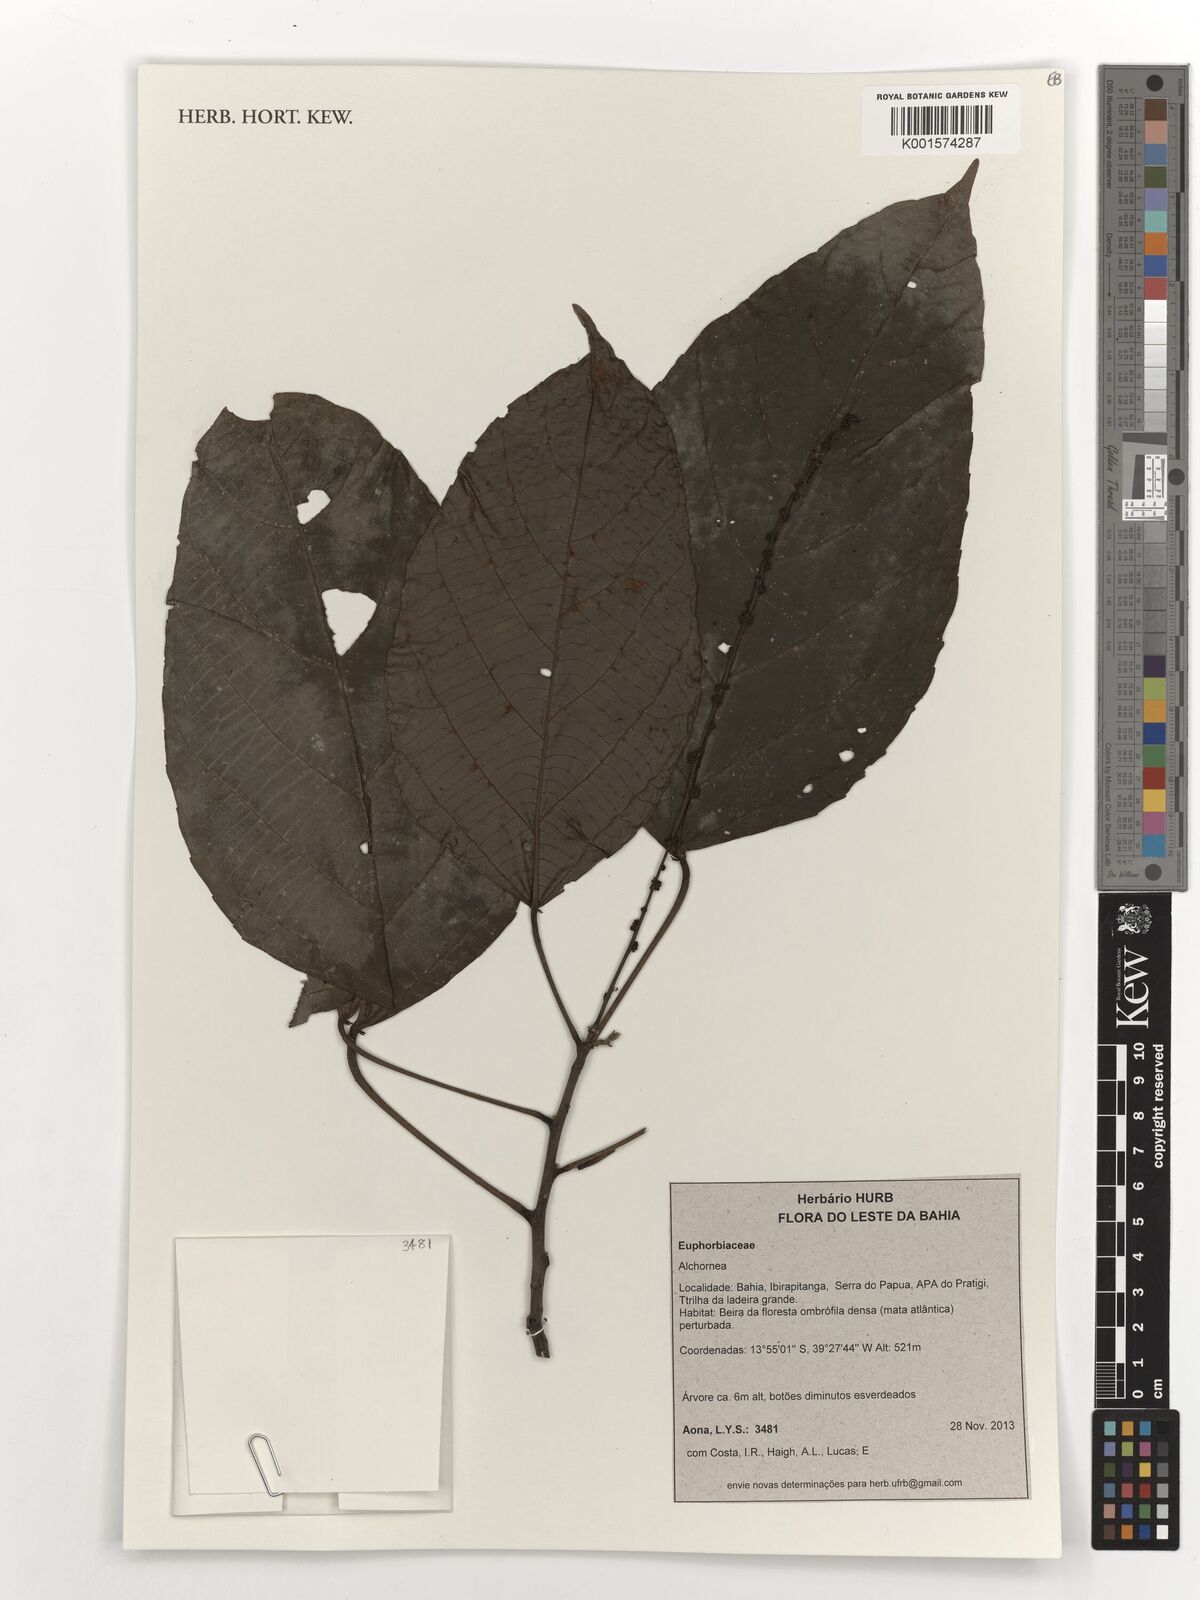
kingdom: Plantae
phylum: Tracheophyta
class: Magnoliopsida
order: Malpighiales
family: Euphorbiaceae
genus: Alchornea
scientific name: Alchornea
